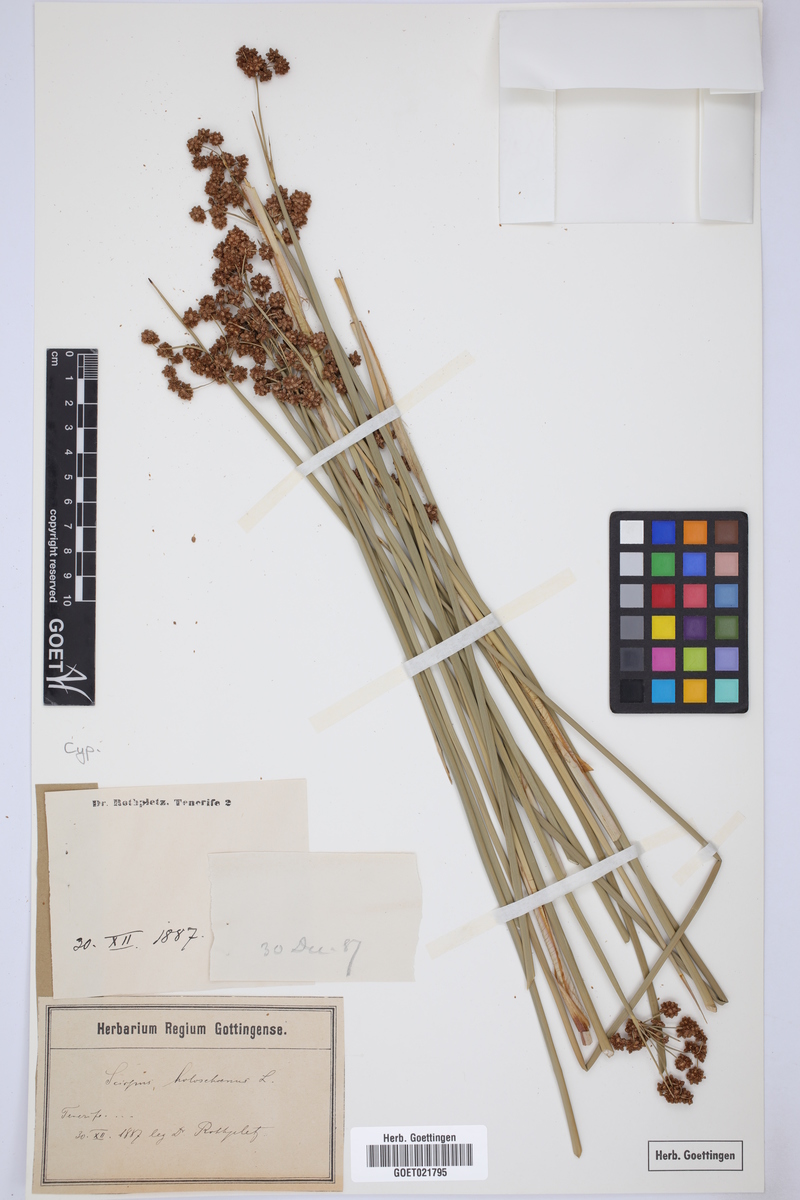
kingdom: Plantae
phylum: Tracheophyta
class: Liliopsida
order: Poales
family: Cyperaceae
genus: Scirpoides
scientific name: Scirpoides holoschoenus
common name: Round-headed club-rush
